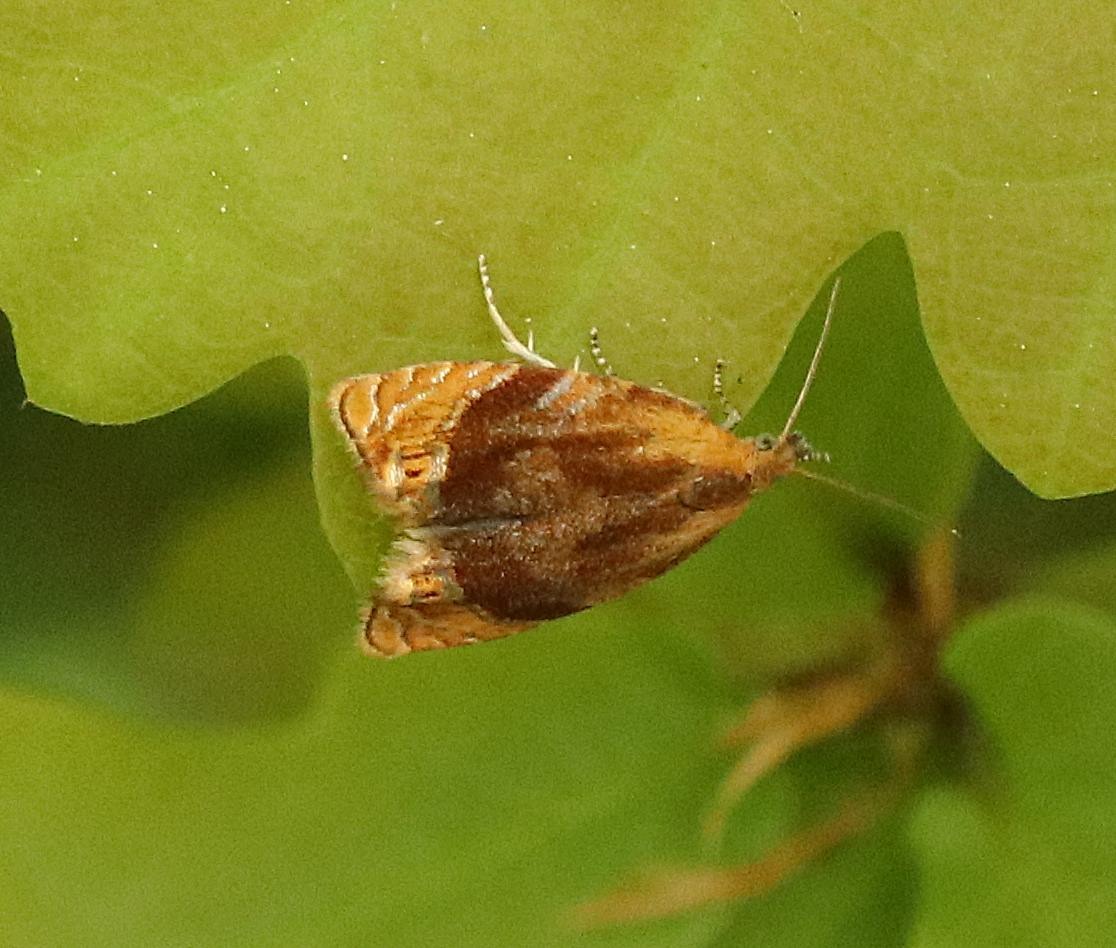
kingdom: Animalia
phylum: Arthropoda
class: Insecta
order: Lepidoptera
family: Tortricidae
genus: Eucosmomorpha
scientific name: Eucosmomorpha albersana
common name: Gedebladvikler
